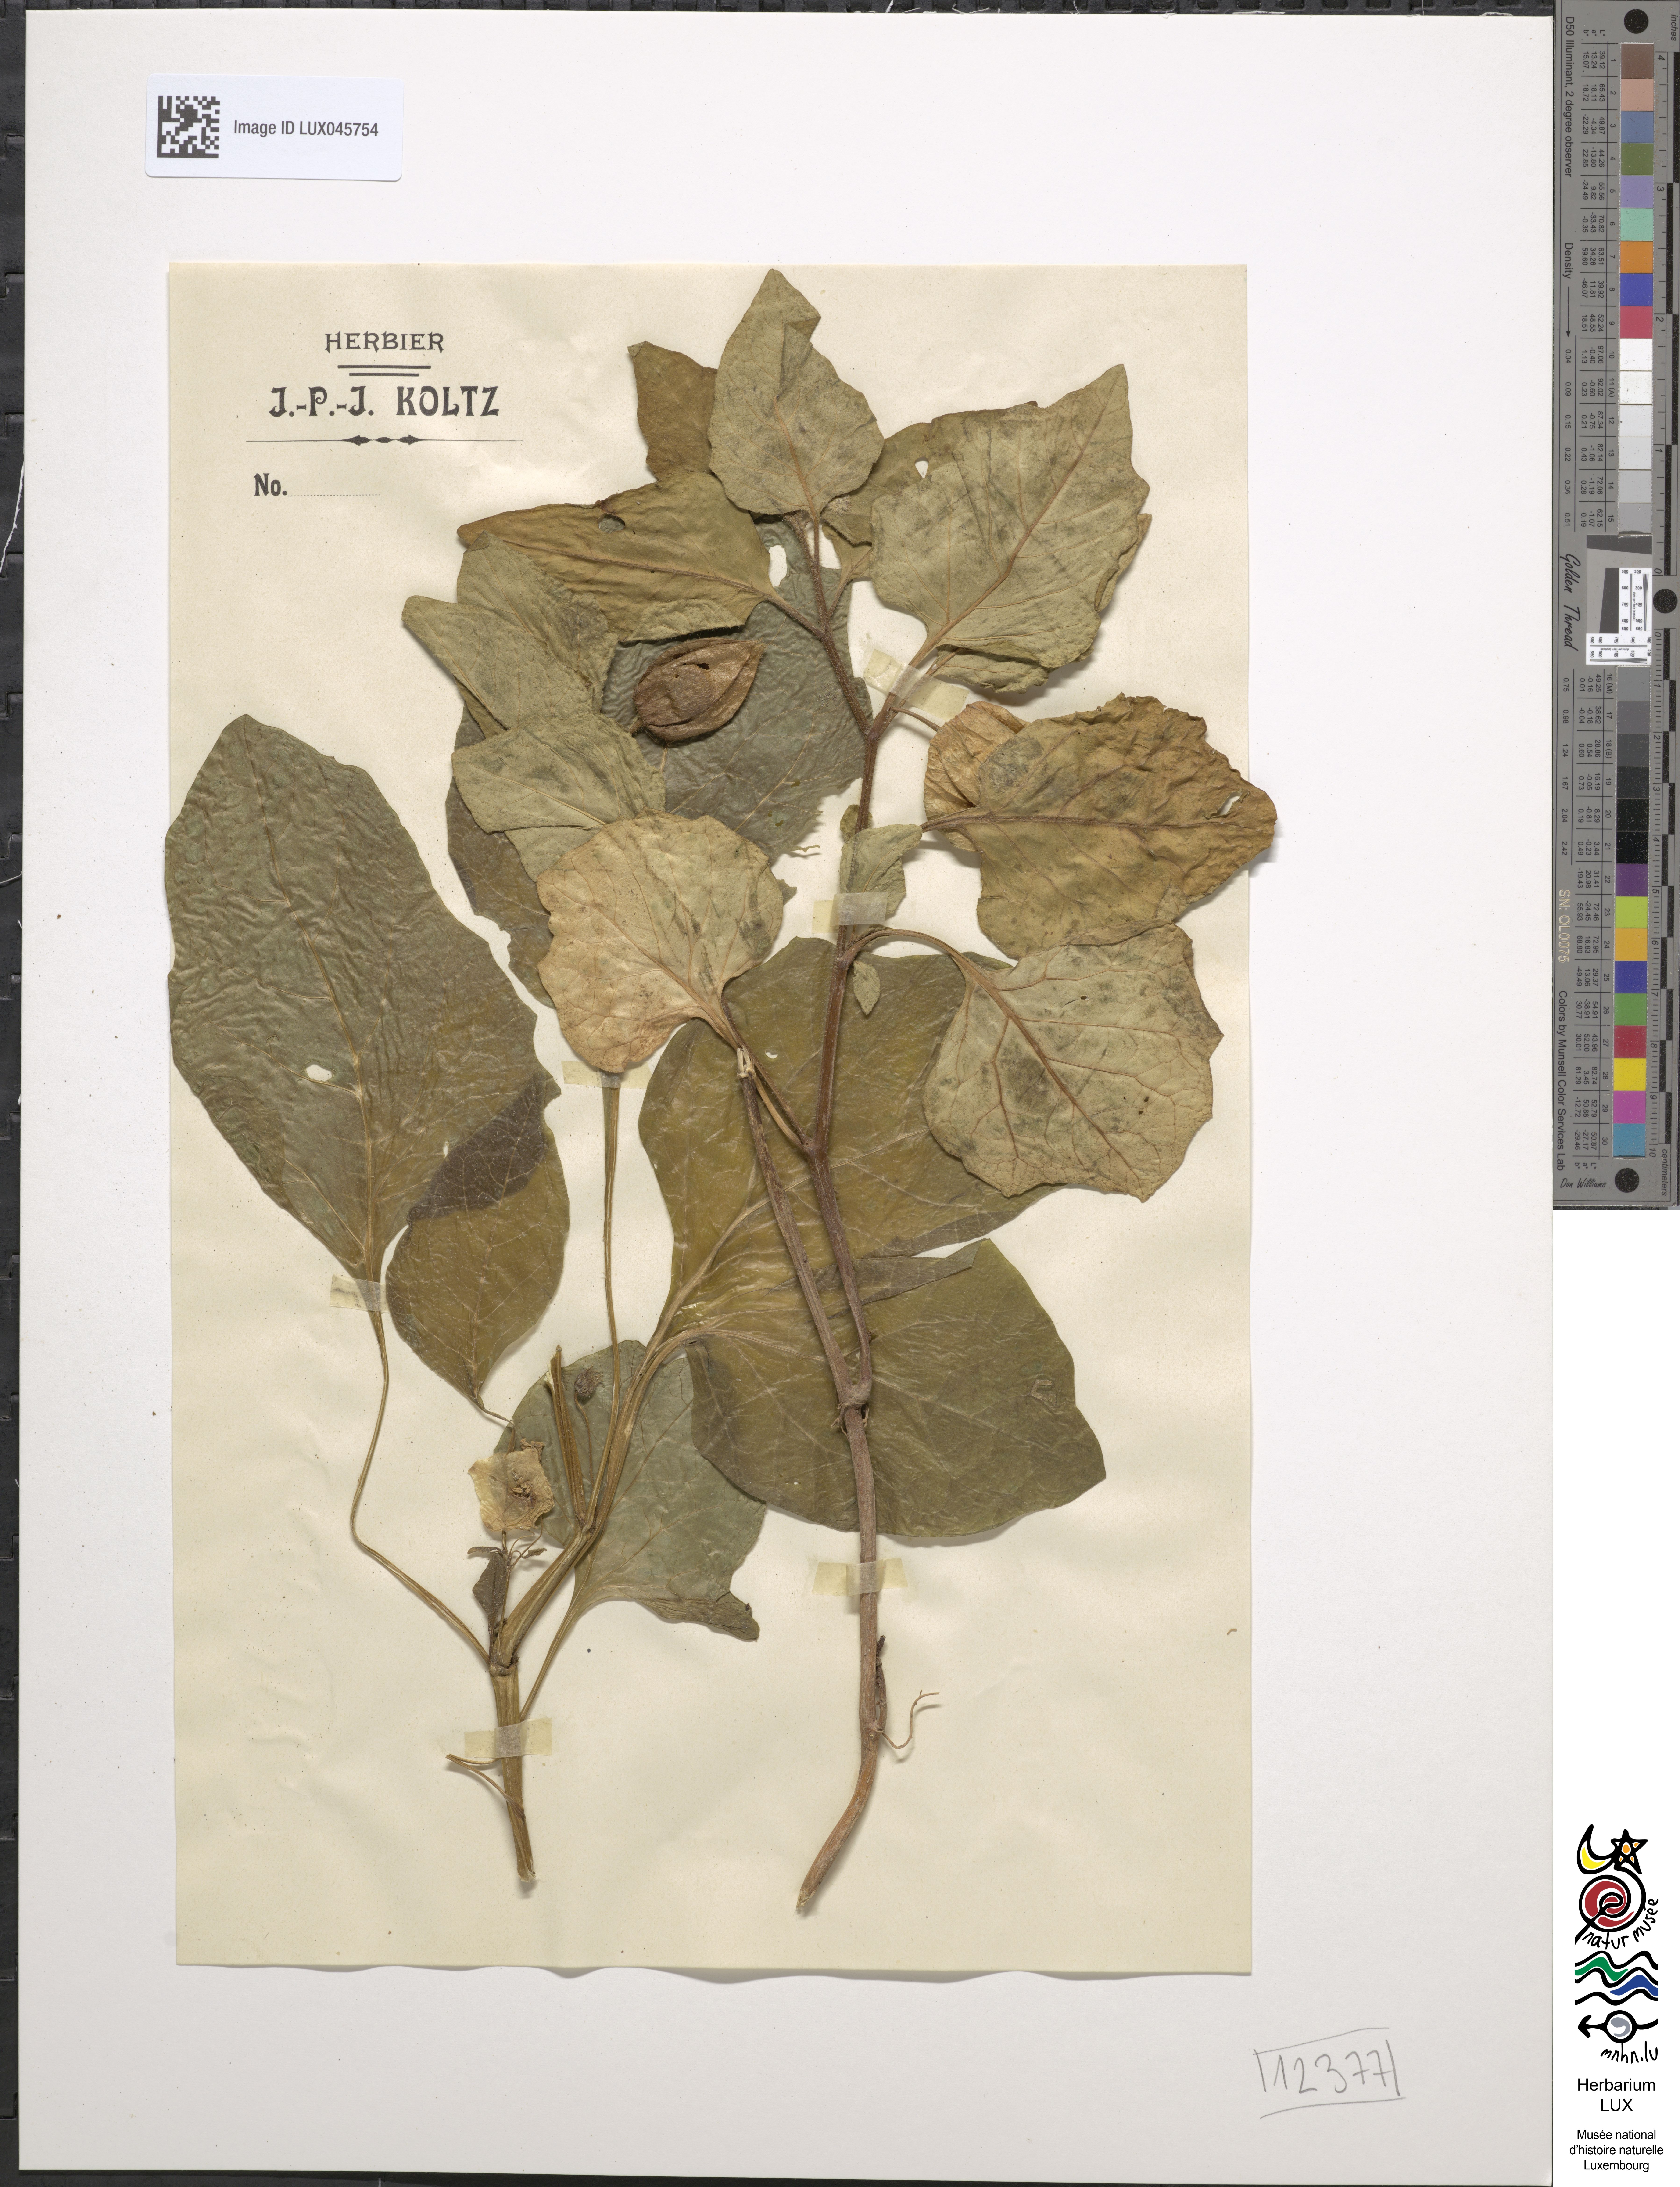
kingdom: Plantae
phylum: Tracheophyta
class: Magnoliopsida
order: Solanales
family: Solanaceae
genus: Alkekengi
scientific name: Alkekengi officinarum
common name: Japanese-lantern
